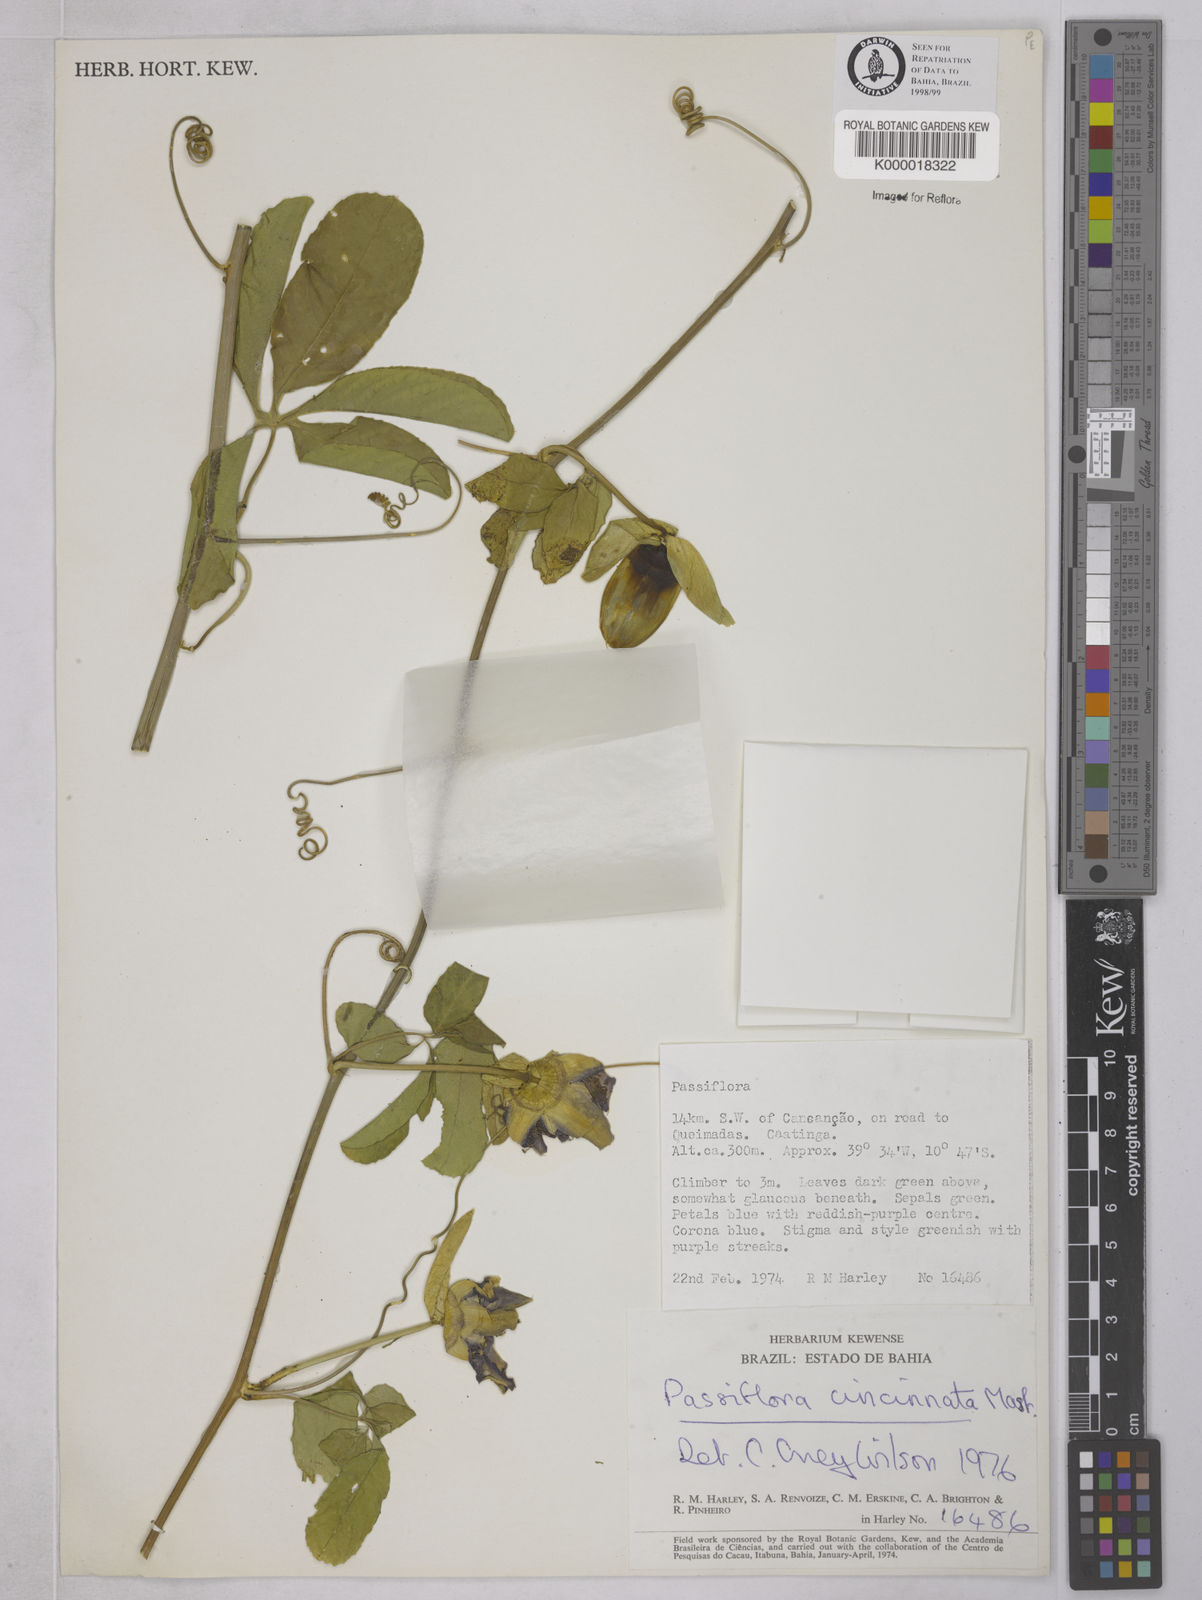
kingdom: Plantae
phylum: Tracheophyta
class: Magnoliopsida
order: Malpighiales
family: Passifloraceae
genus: Passiflora
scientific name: Passiflora cincinnata
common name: Crato passionvine
